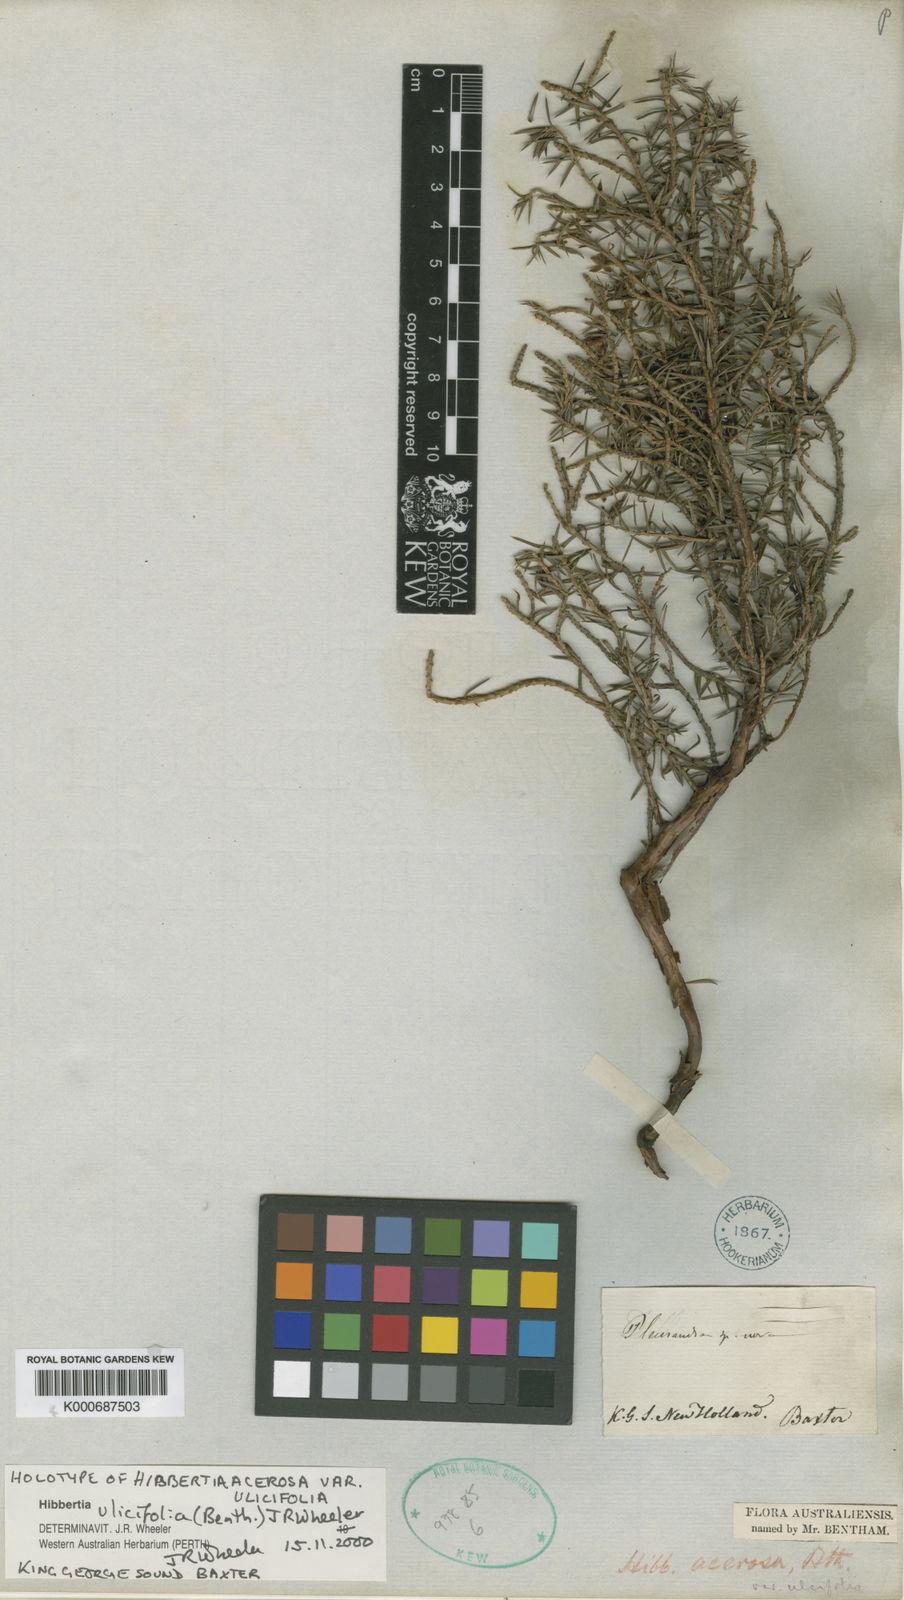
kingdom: Plantae
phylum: Tracheophyta
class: Magnoliopsida
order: Dilleniales
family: Dilleniaceae
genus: Hibbertia
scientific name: Hibbertia ulicifolia
